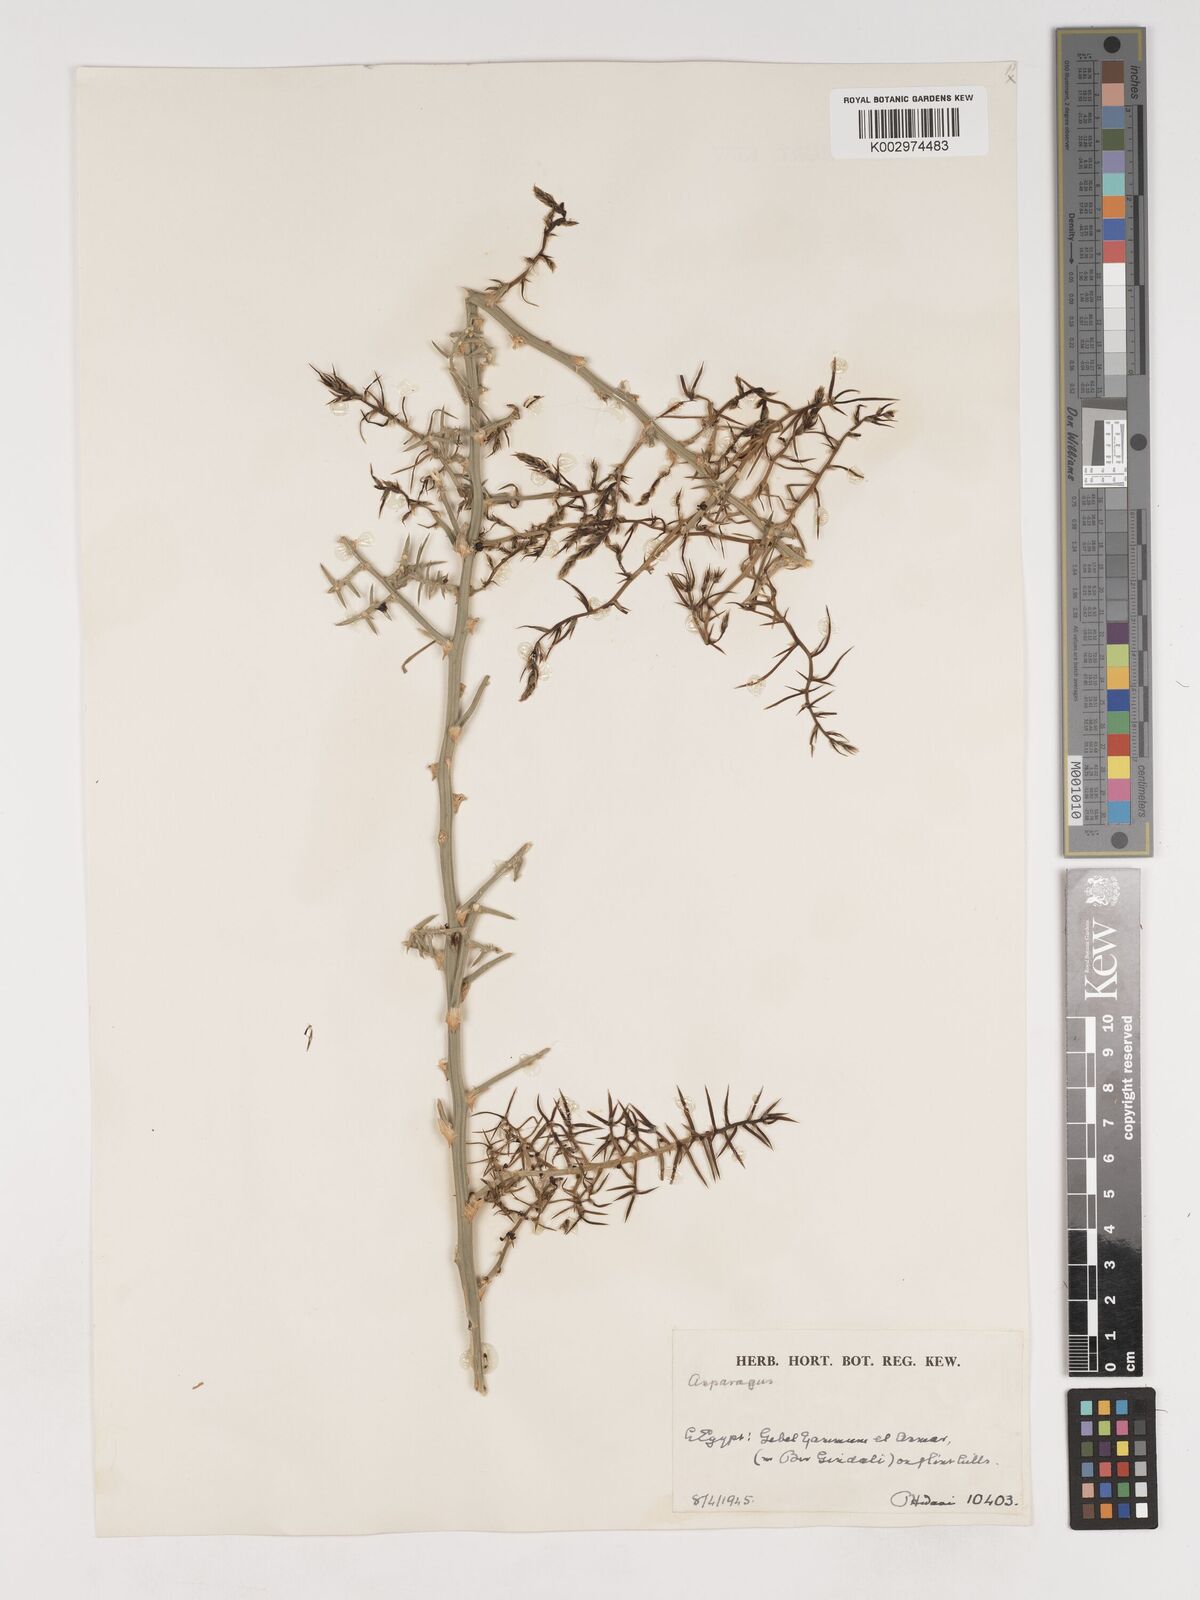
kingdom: Plantae
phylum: Tracheophyta
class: Liliopsida
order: Asparagales
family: Asparagaceae
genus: Asparagus
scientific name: Asparagus
